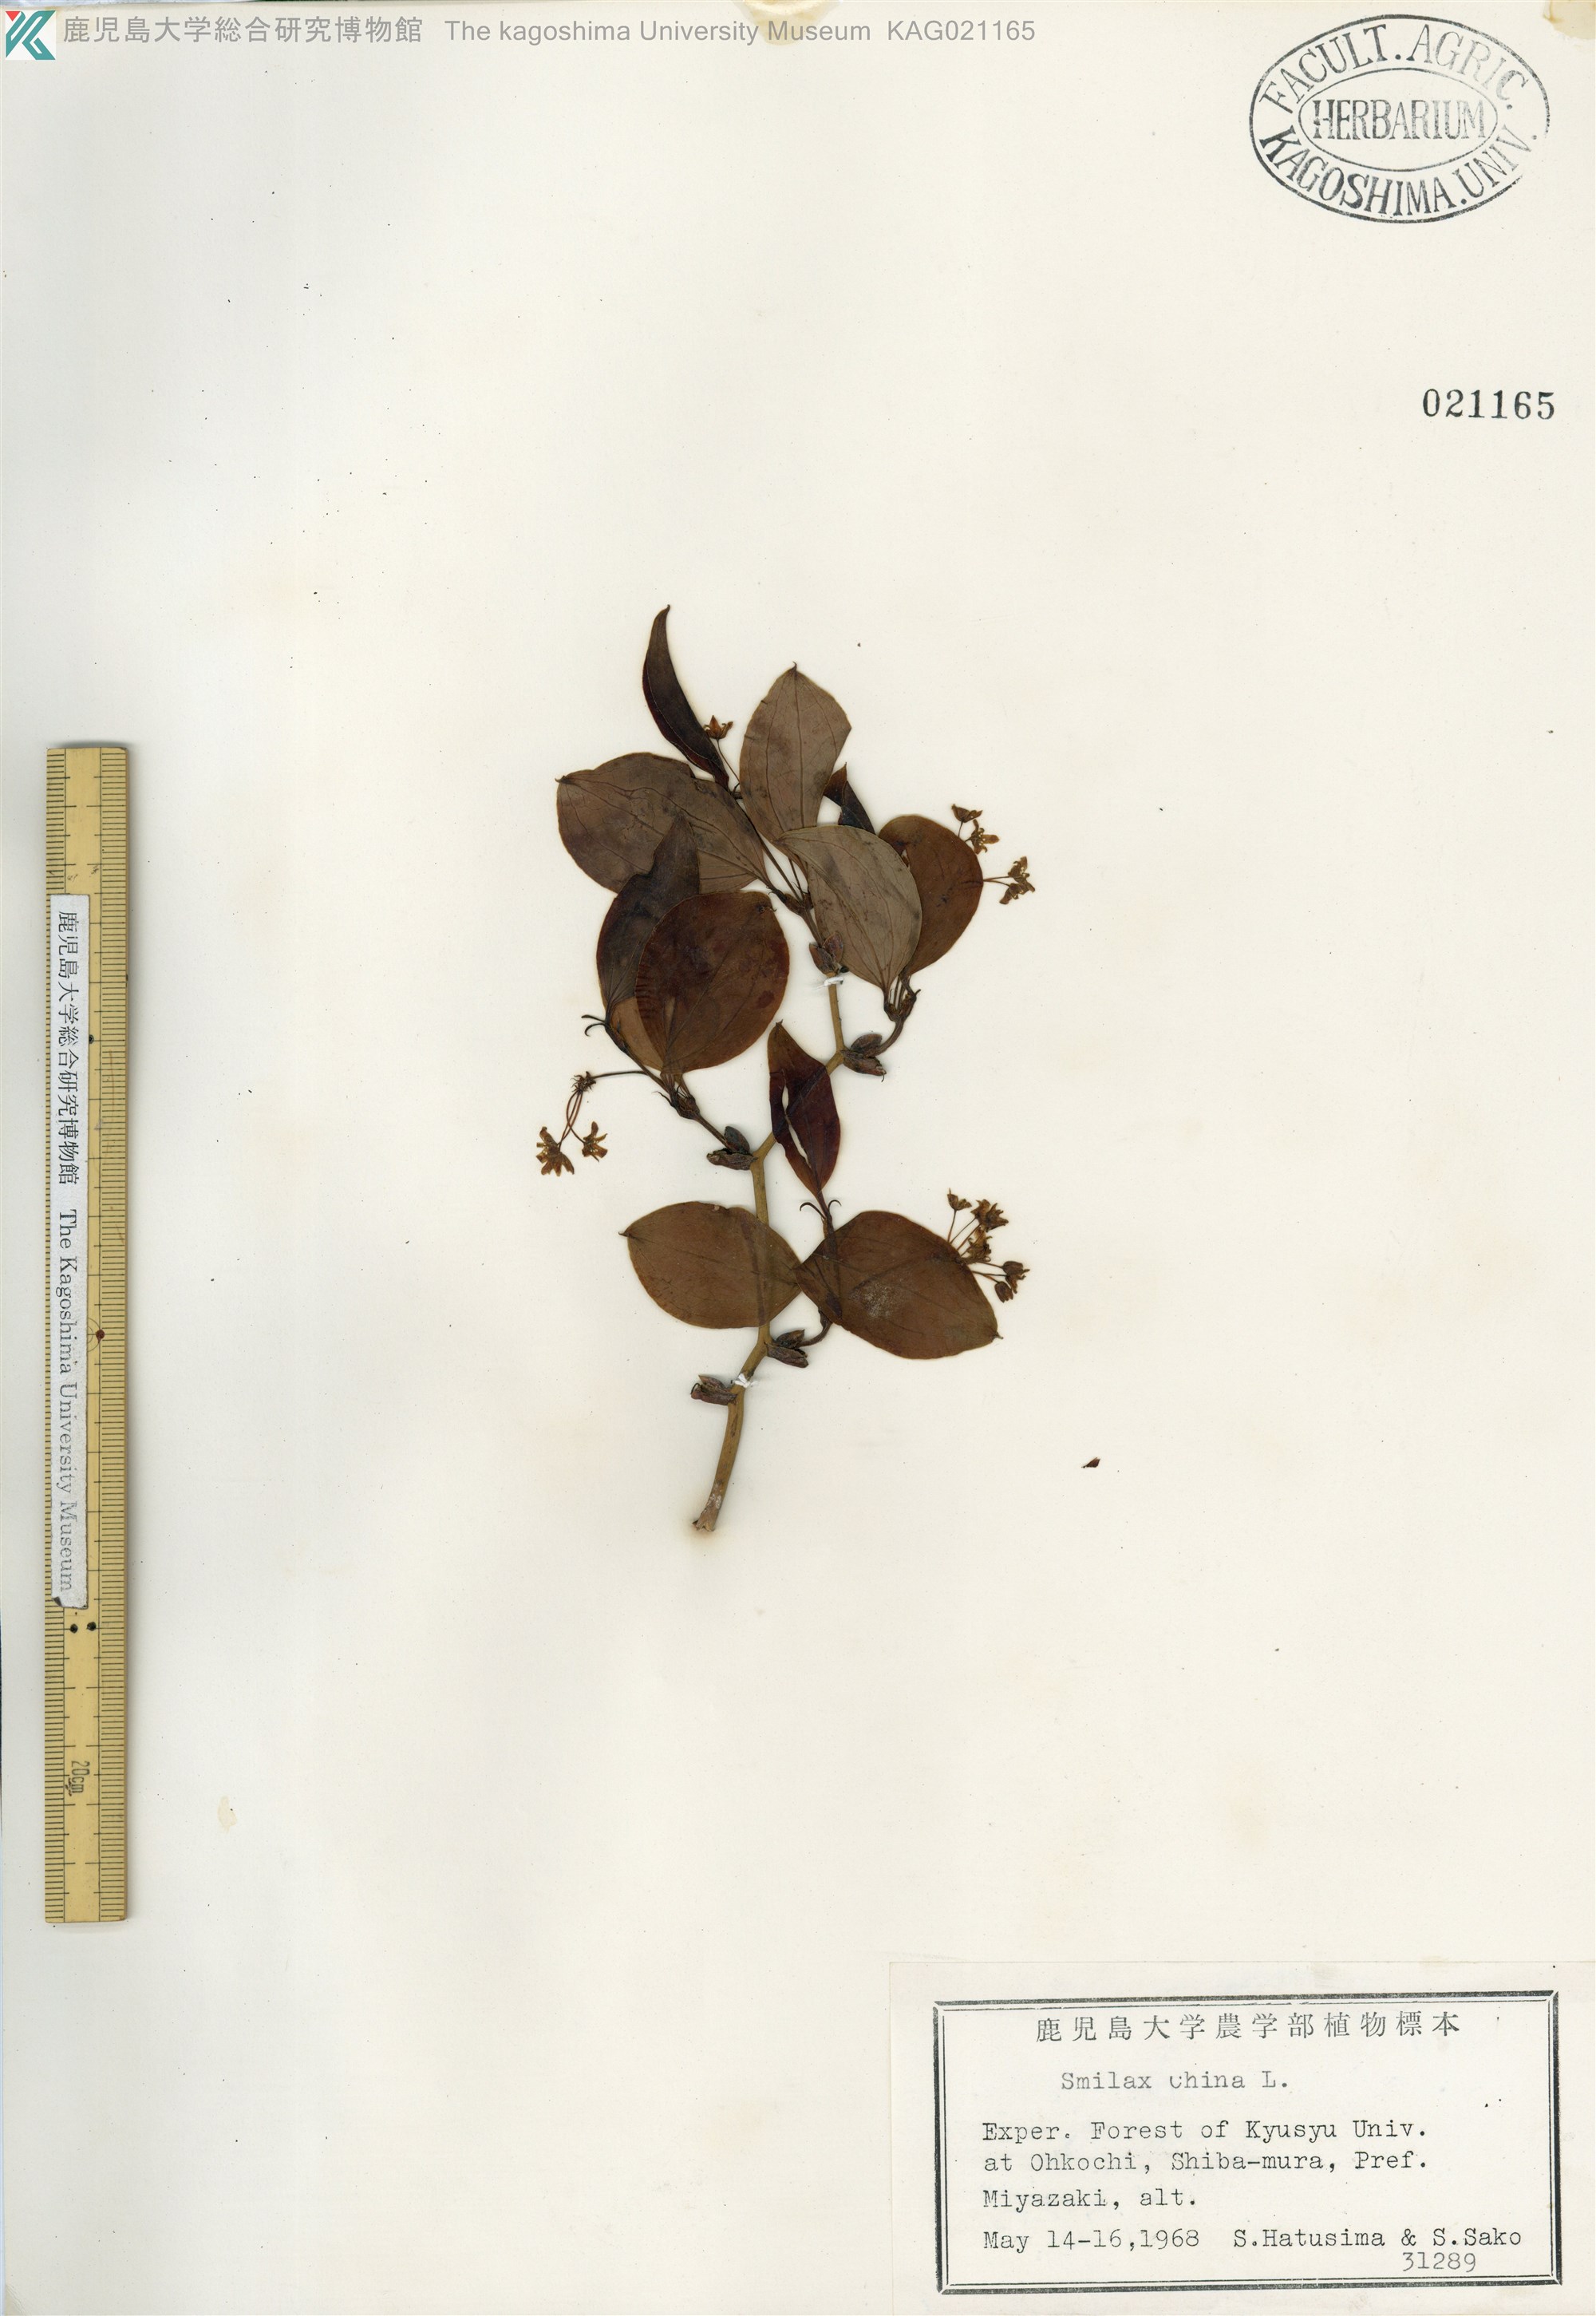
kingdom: Plantae
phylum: Tracheophyta
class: Liliopsida
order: Liliales
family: Smilacaceae
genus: Smilax
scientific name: Smilax china
